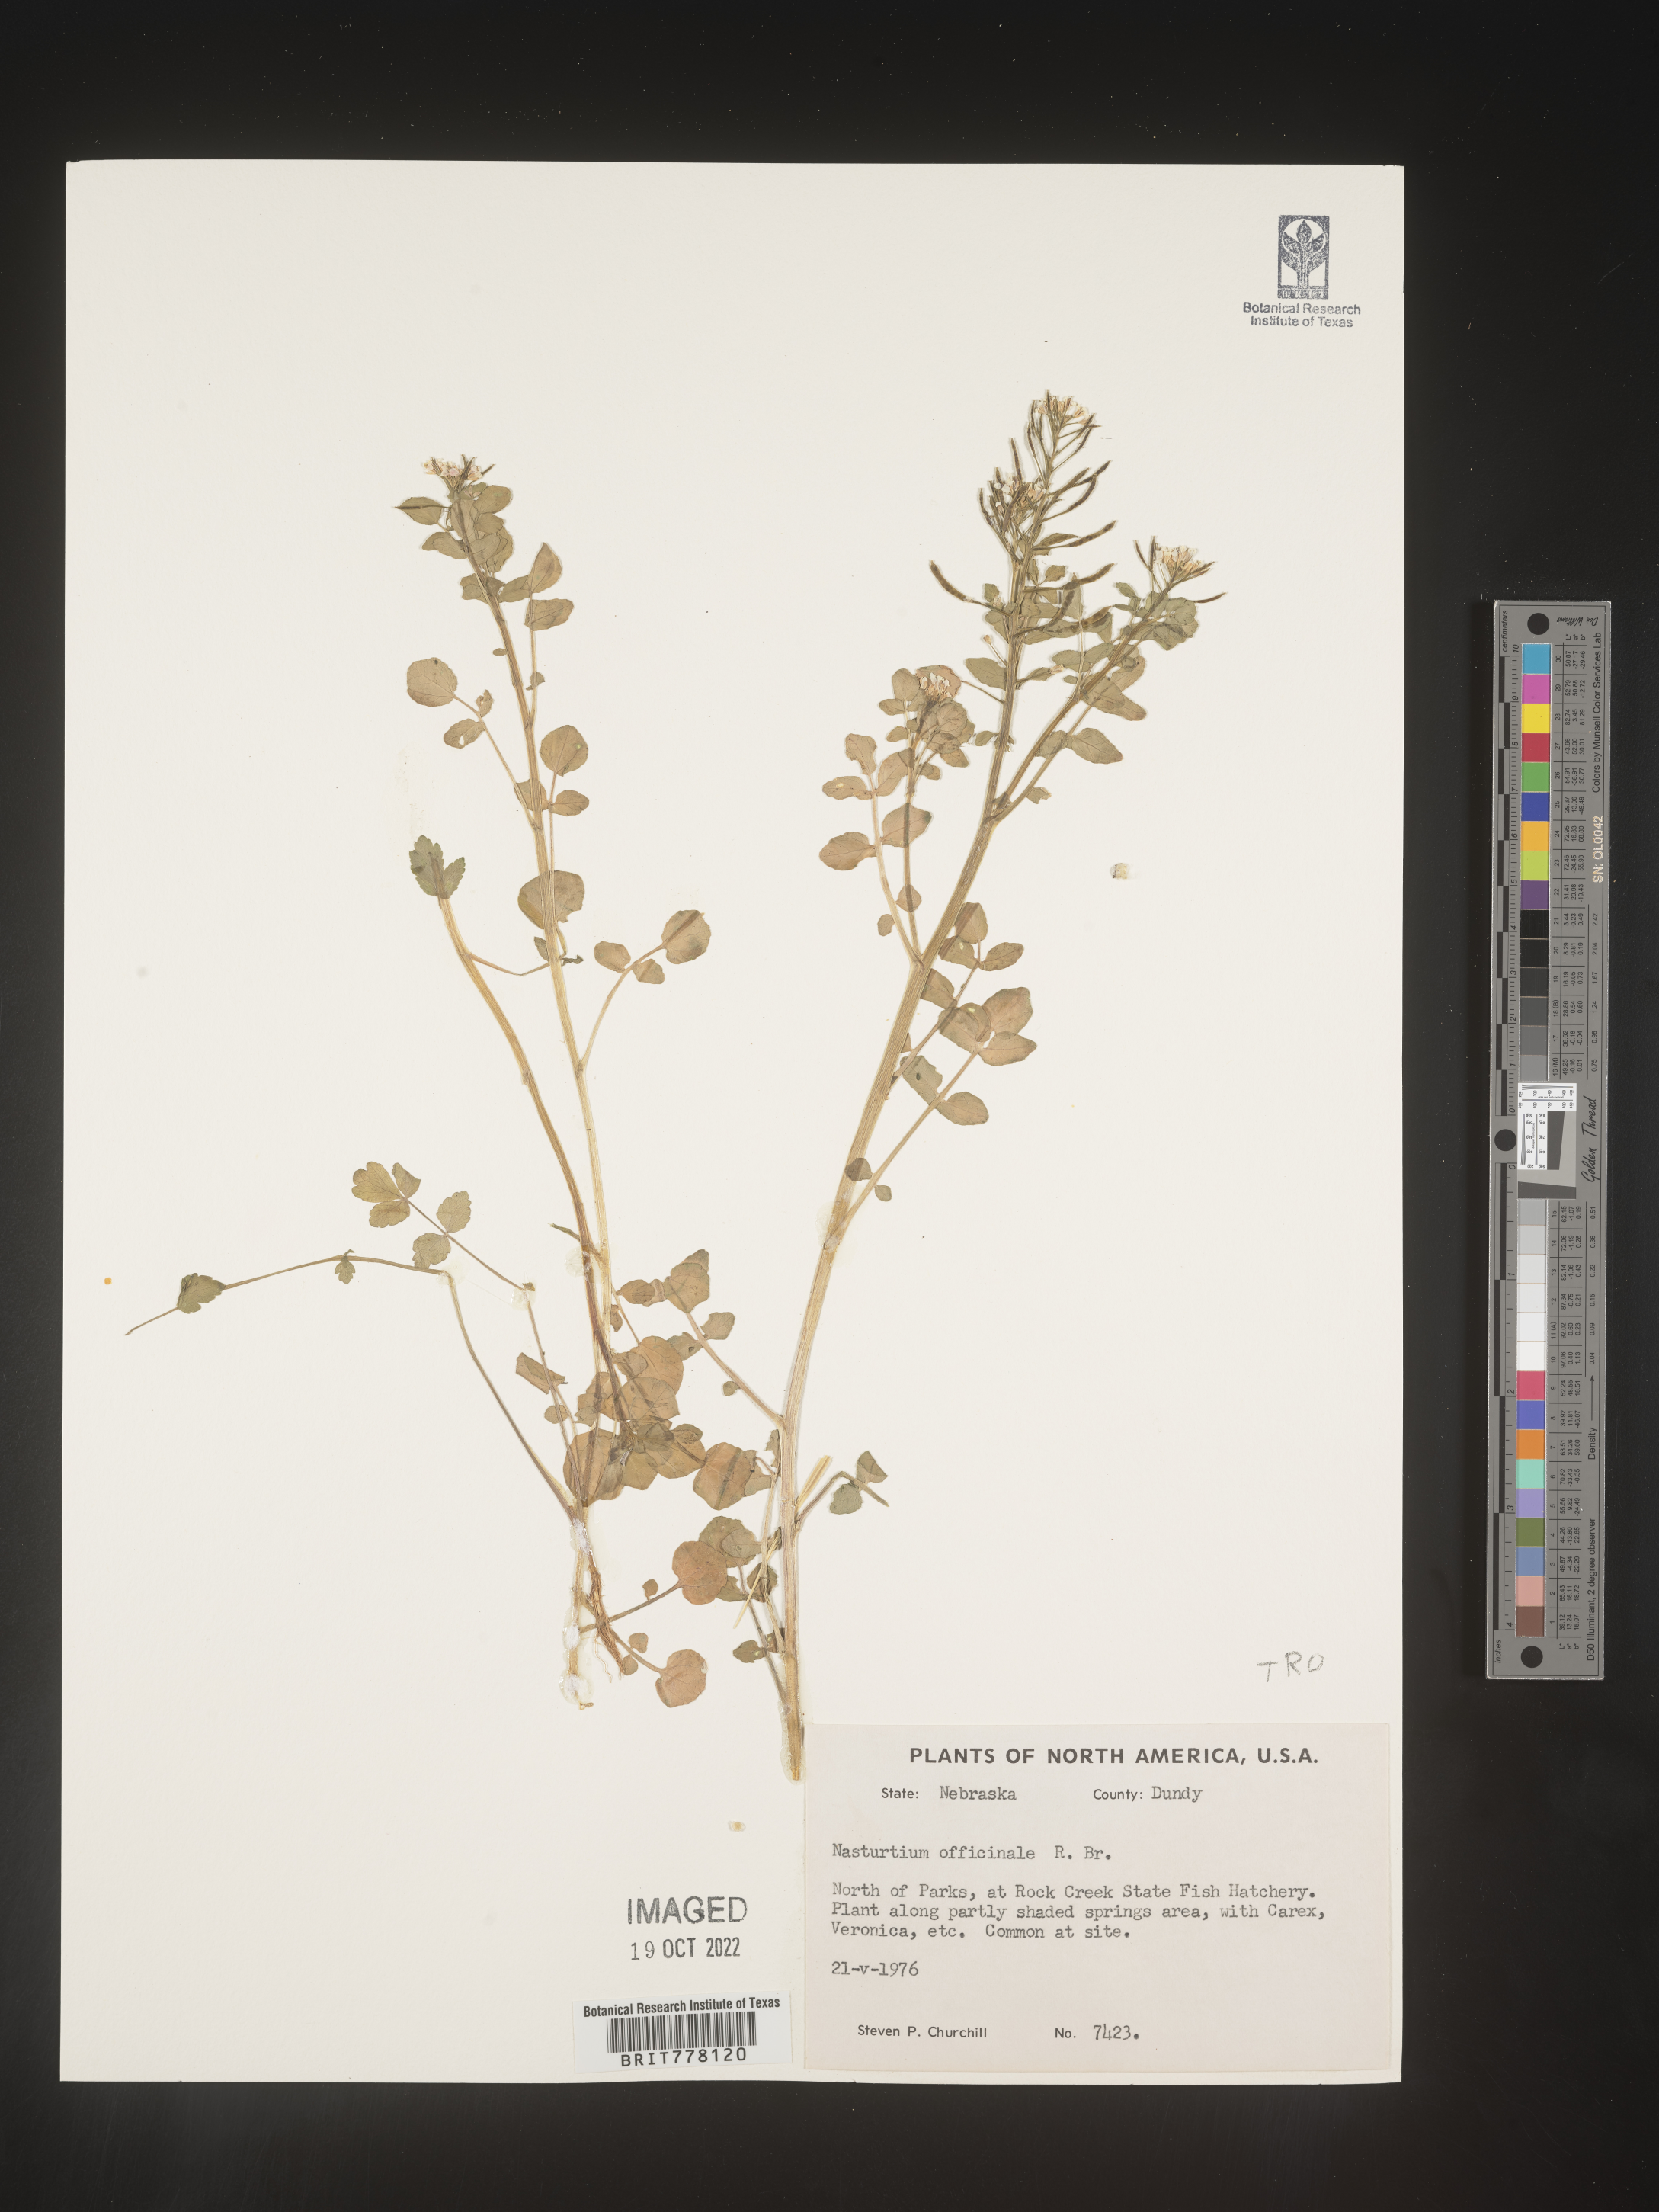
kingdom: Plantae
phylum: Tracheophyta
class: Magnoliopsida
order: Brassicales
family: Brassicaceae
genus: Nasturtium
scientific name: Nasturtium
